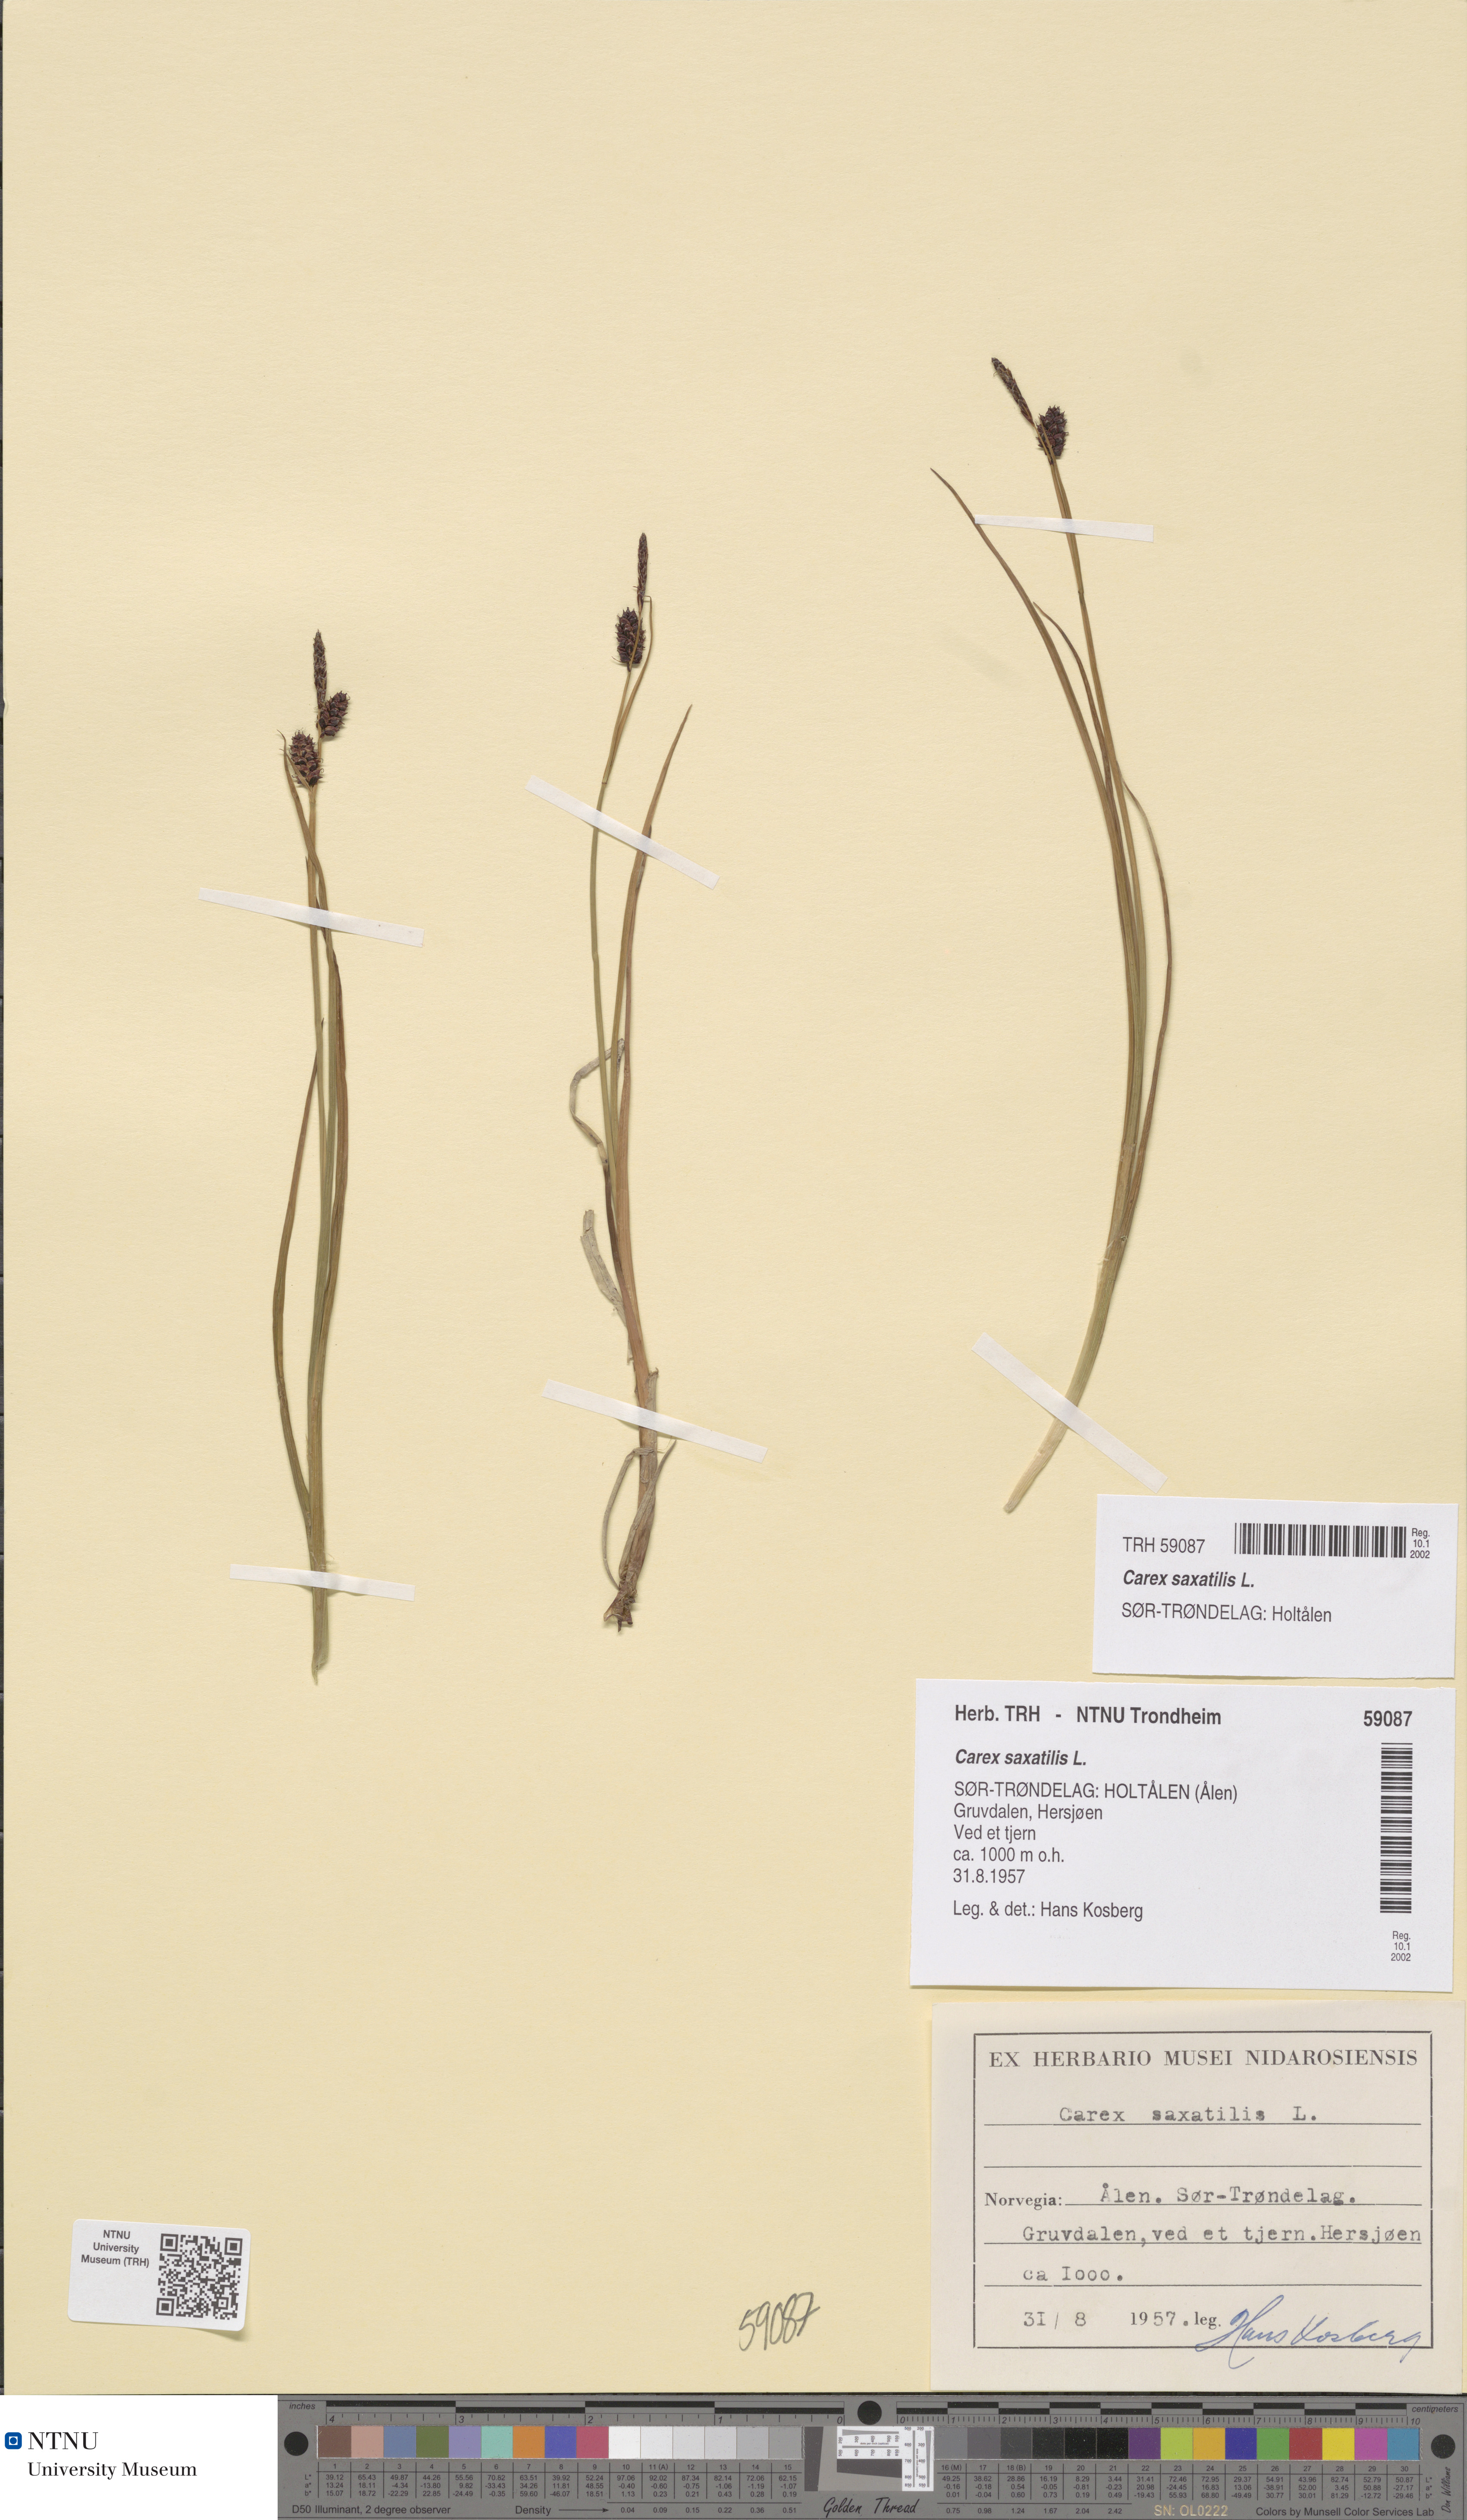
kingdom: Plantae
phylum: Tracheophyta
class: Liliopsida
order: Poales
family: Cyperaceae
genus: Carex
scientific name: Carex saxatilis
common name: Russet sedge
